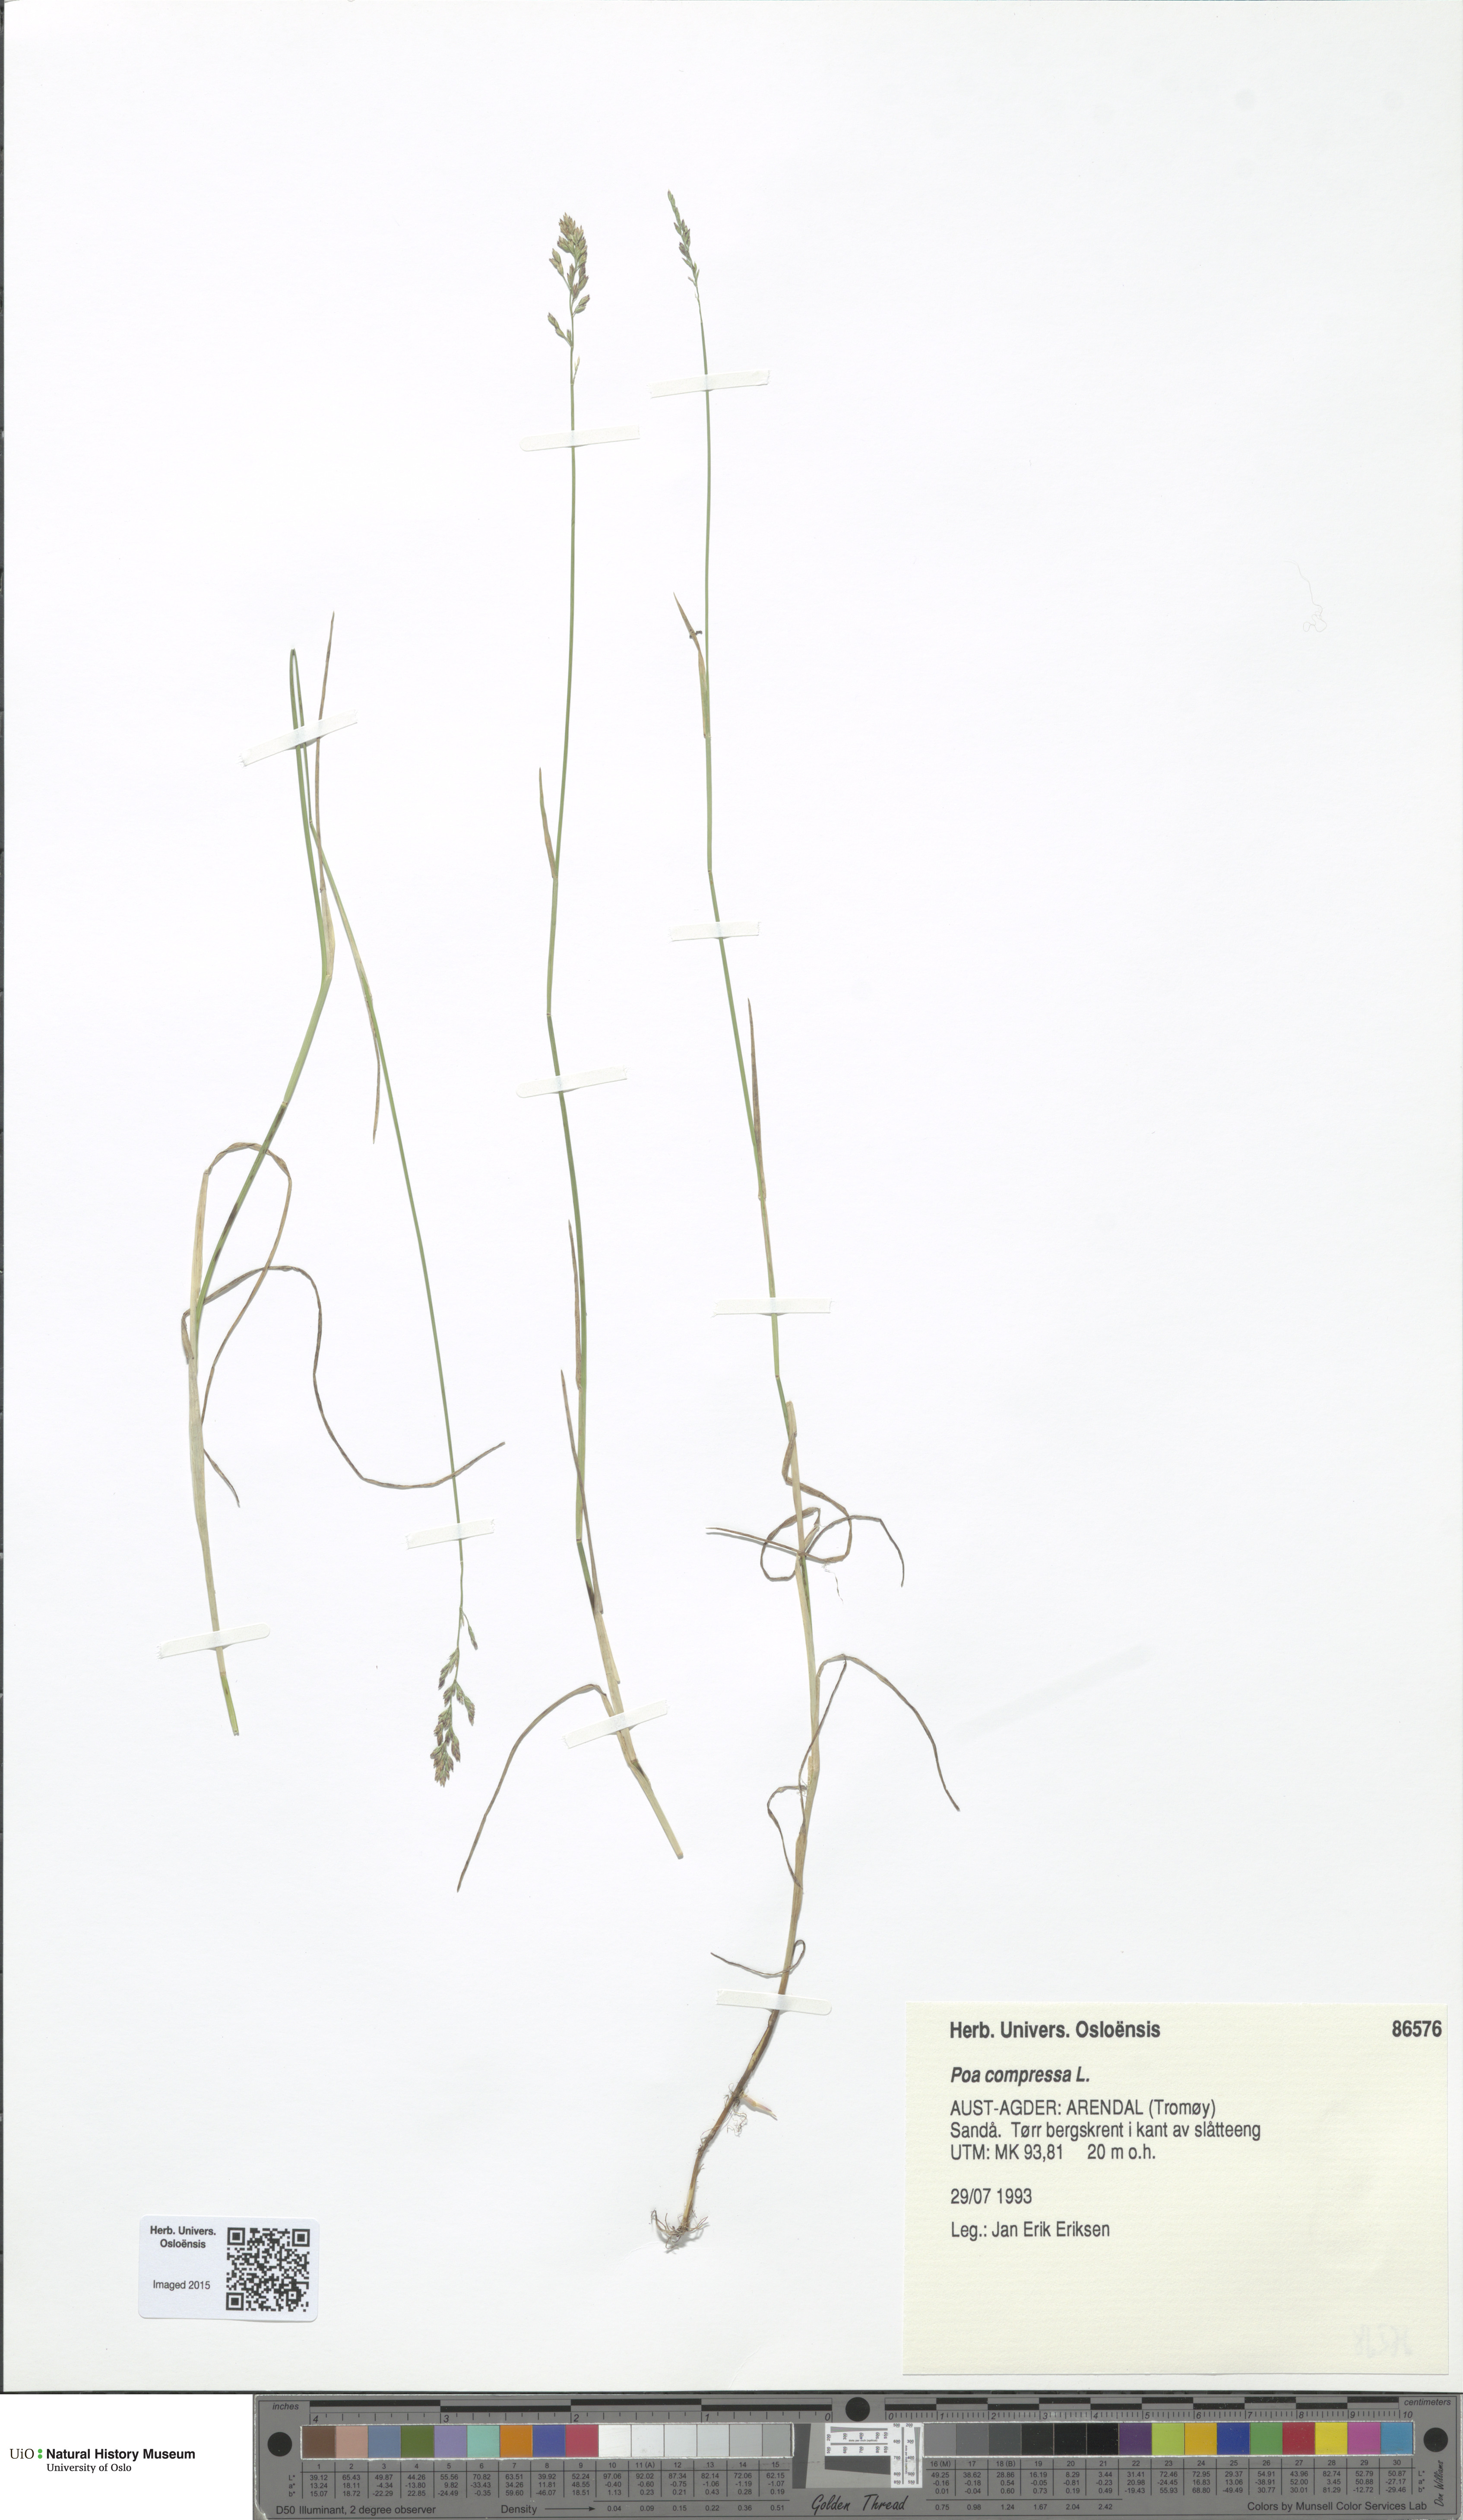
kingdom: Plantae
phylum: Tracheophyta
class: Liliopsida
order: Poales
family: Poaceae
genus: Poa
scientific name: Poa compressa
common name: Canada bluegrass
